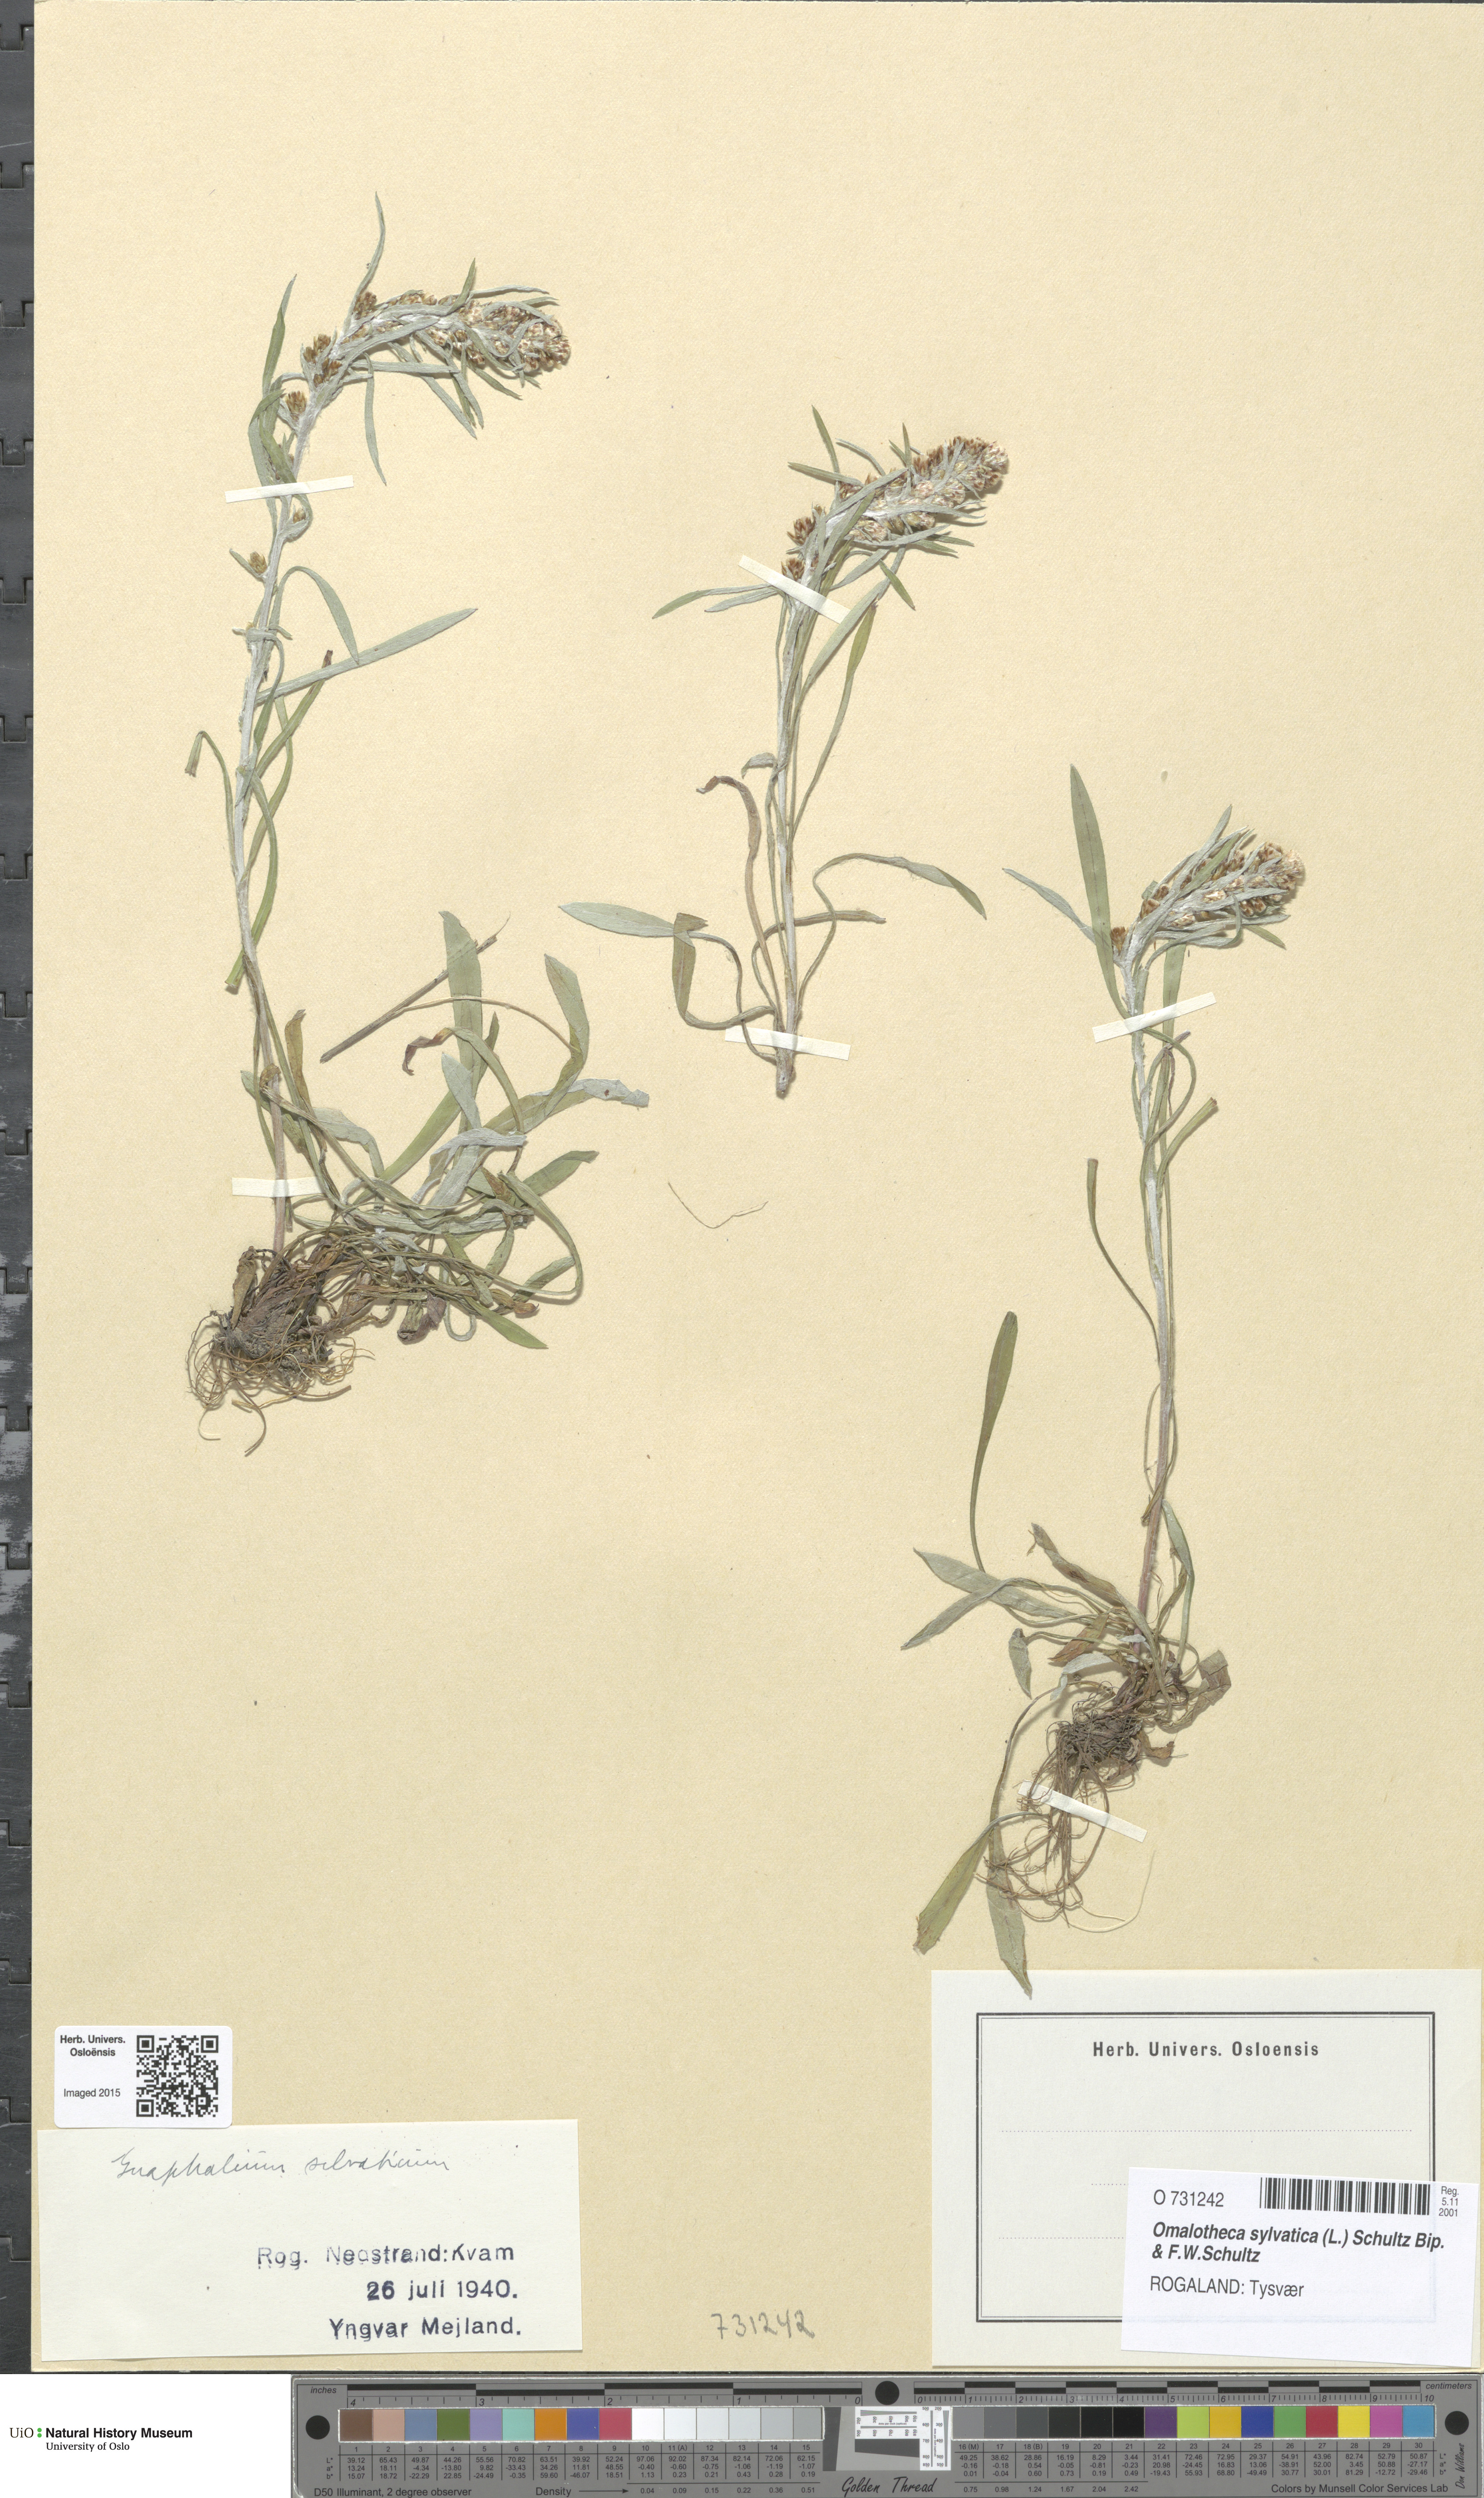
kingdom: Plantae
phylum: Tracheophyta
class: Magnoliopsida
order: Asterales
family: Asteraceae
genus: Omalotheca
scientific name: Omalotheca sylvatica
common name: Heath cudweed
